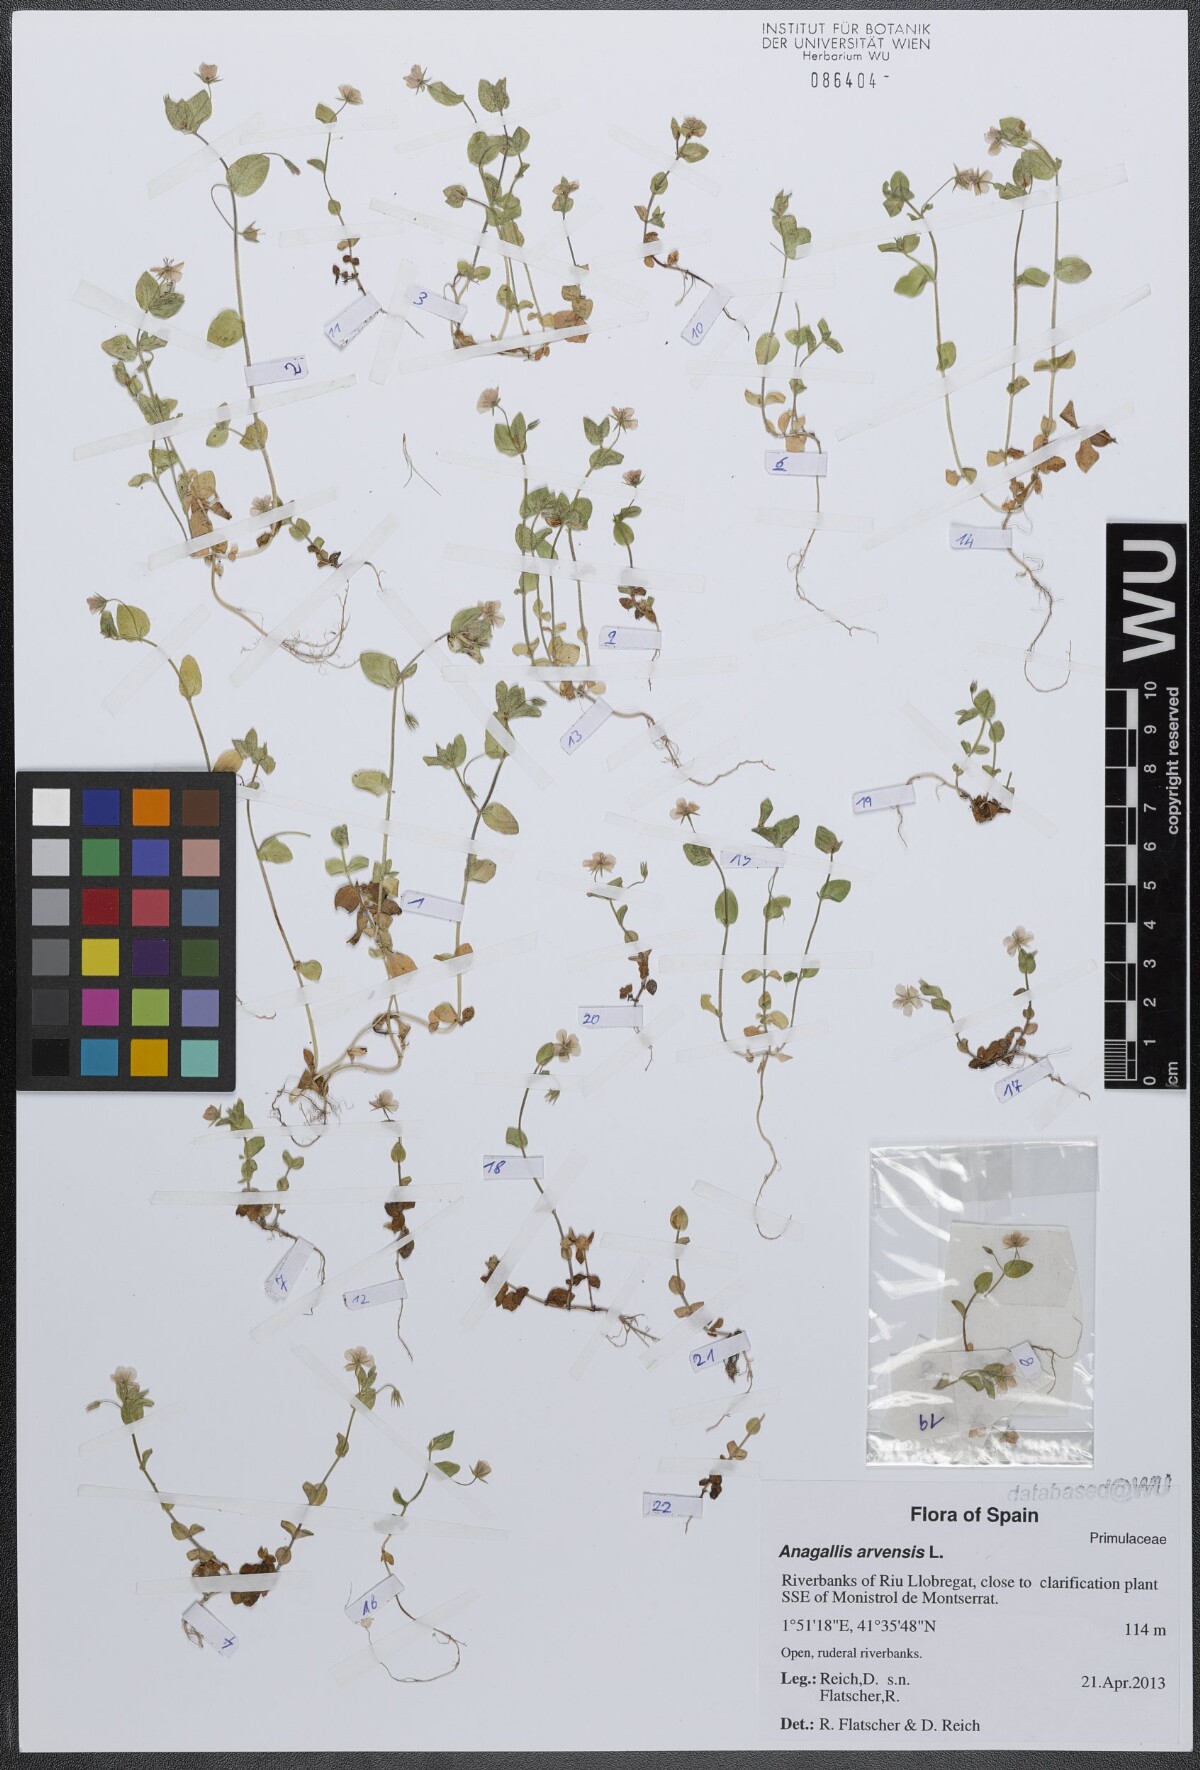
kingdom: Plantae
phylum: Tracheophyta
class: Magnoliopsida
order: Ericales
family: Primulaceae
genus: Lysimachia
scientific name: Lysimachia arvensis
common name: Scarlet pimpernel
